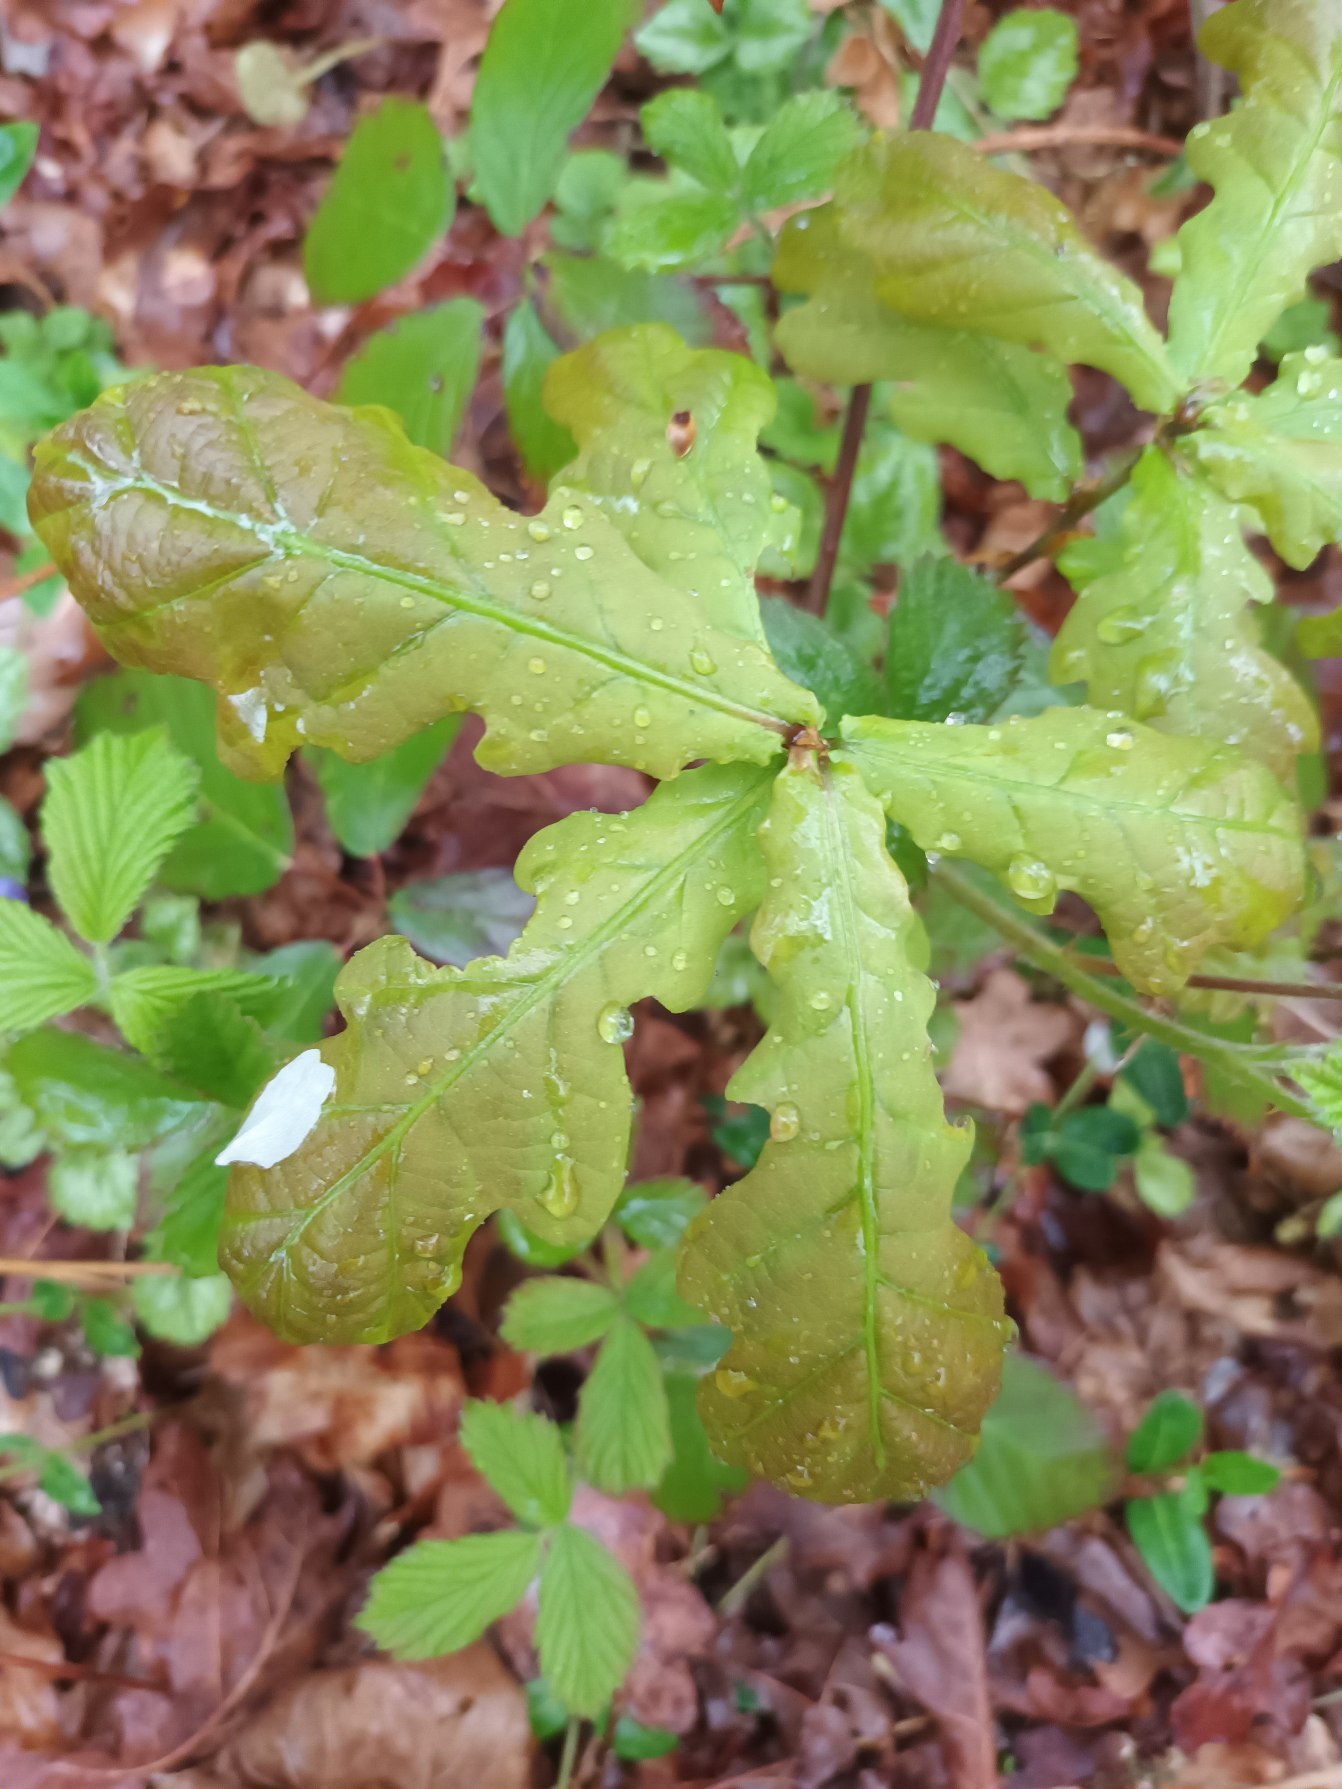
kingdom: Plantae
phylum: Tracheophyta
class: Magnoliopsida
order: Fagales
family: Fagaceae
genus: Quercus
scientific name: Quercus robur
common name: Stilk-eg/almindelig eg
